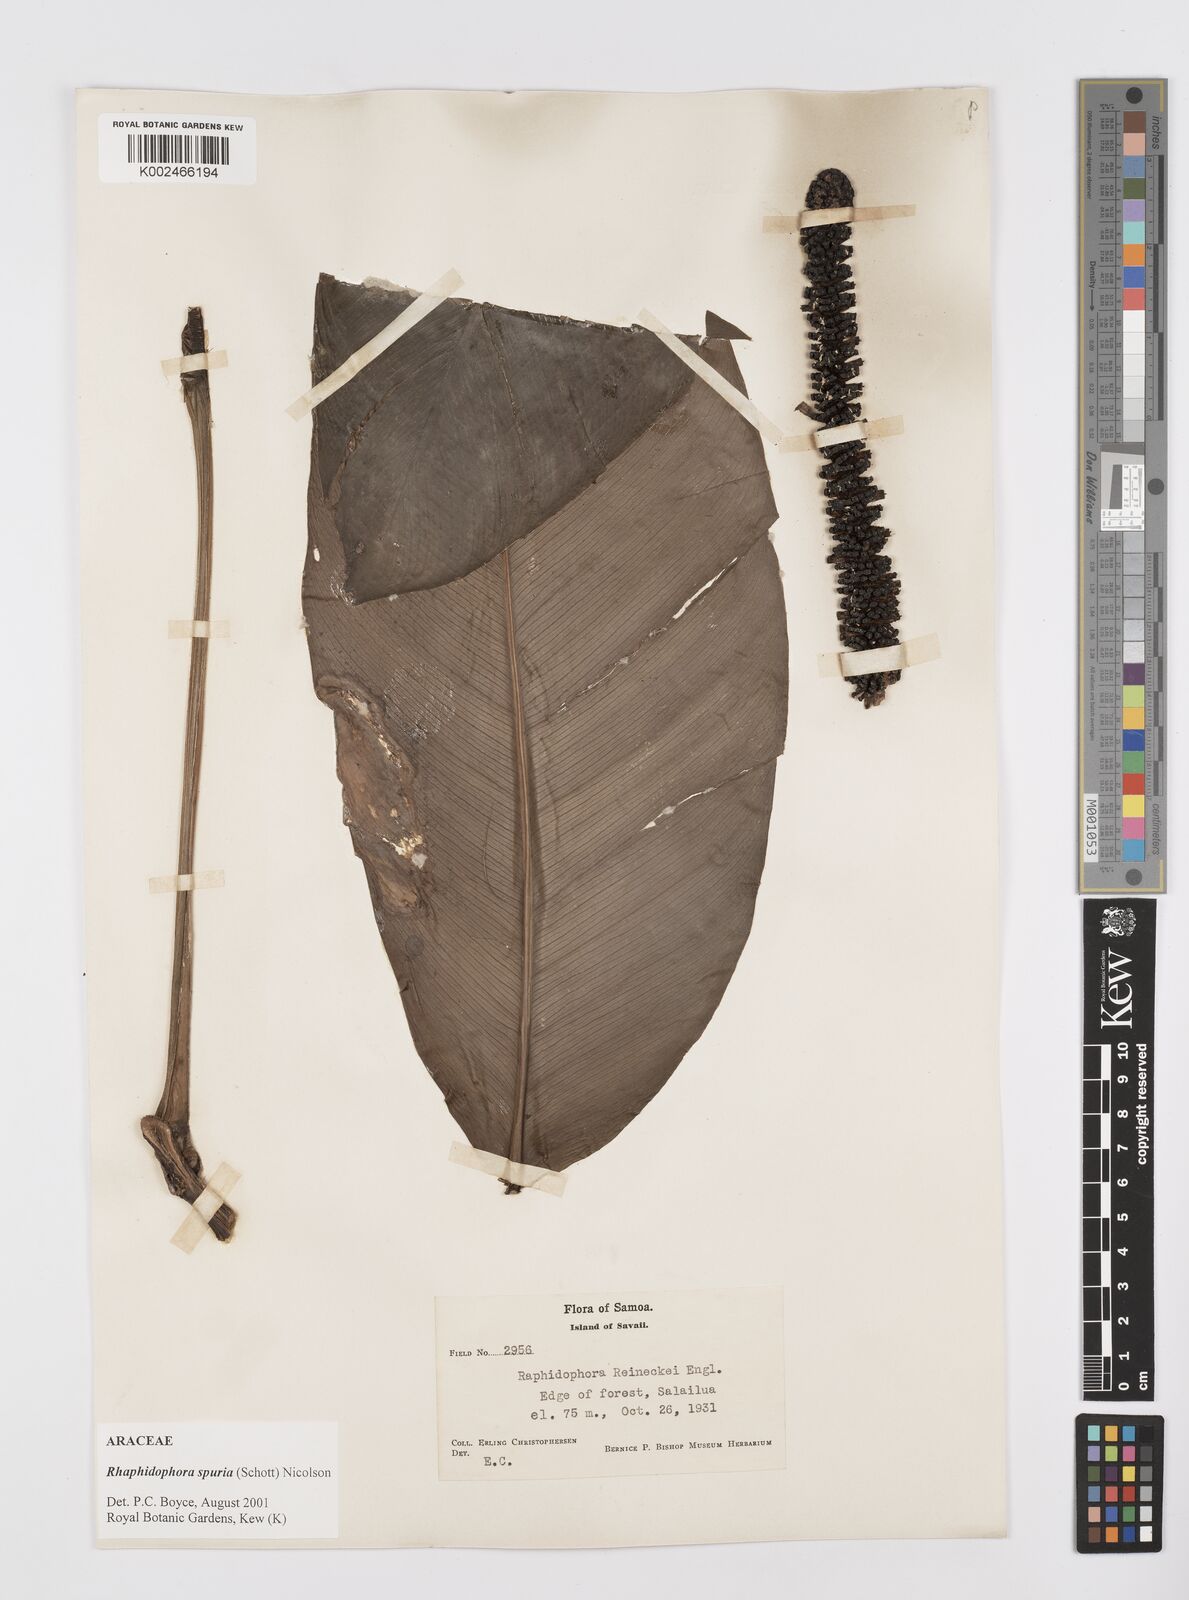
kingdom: Plantae
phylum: Tracheophyta
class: Liliopsida
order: Alismatales
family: Araceae
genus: Rhaphidophora
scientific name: Rhaphidophora spuria
